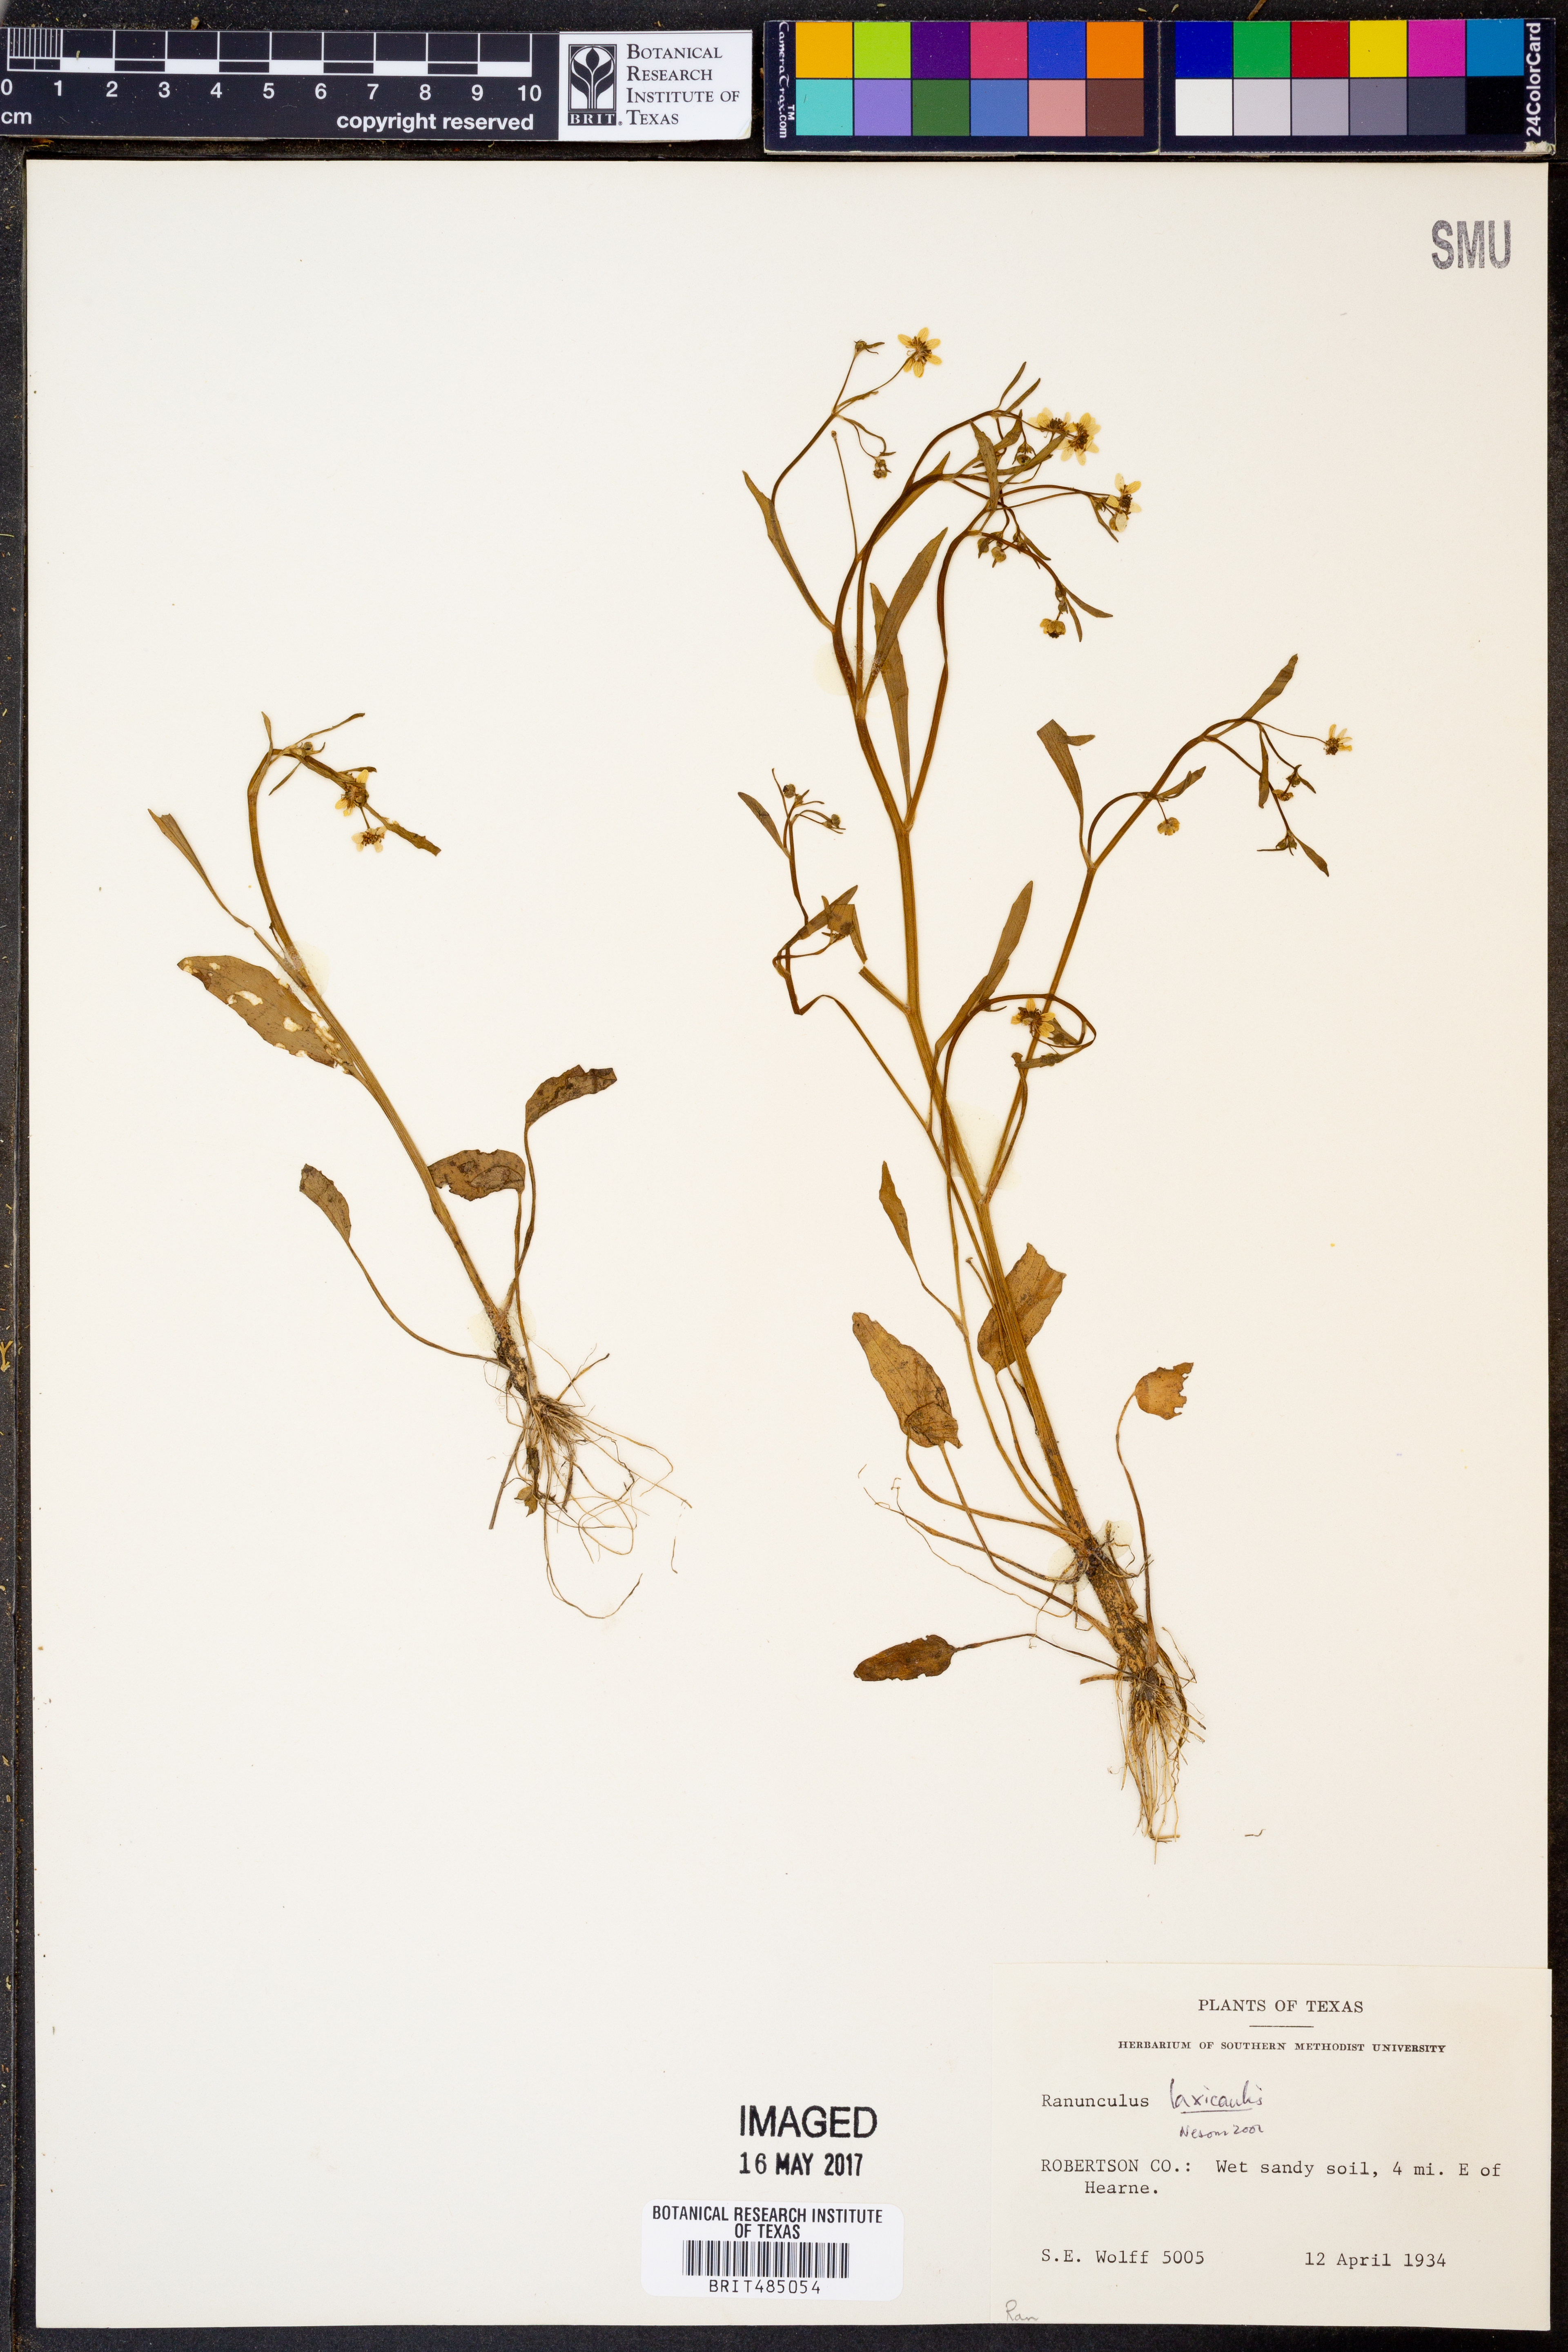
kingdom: Plantae
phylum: Tracheophyta
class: Magnoliopsida
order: Ranunculales
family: Ranunculaceae
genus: Ranunculus
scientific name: Ranunculus laxicaulis
